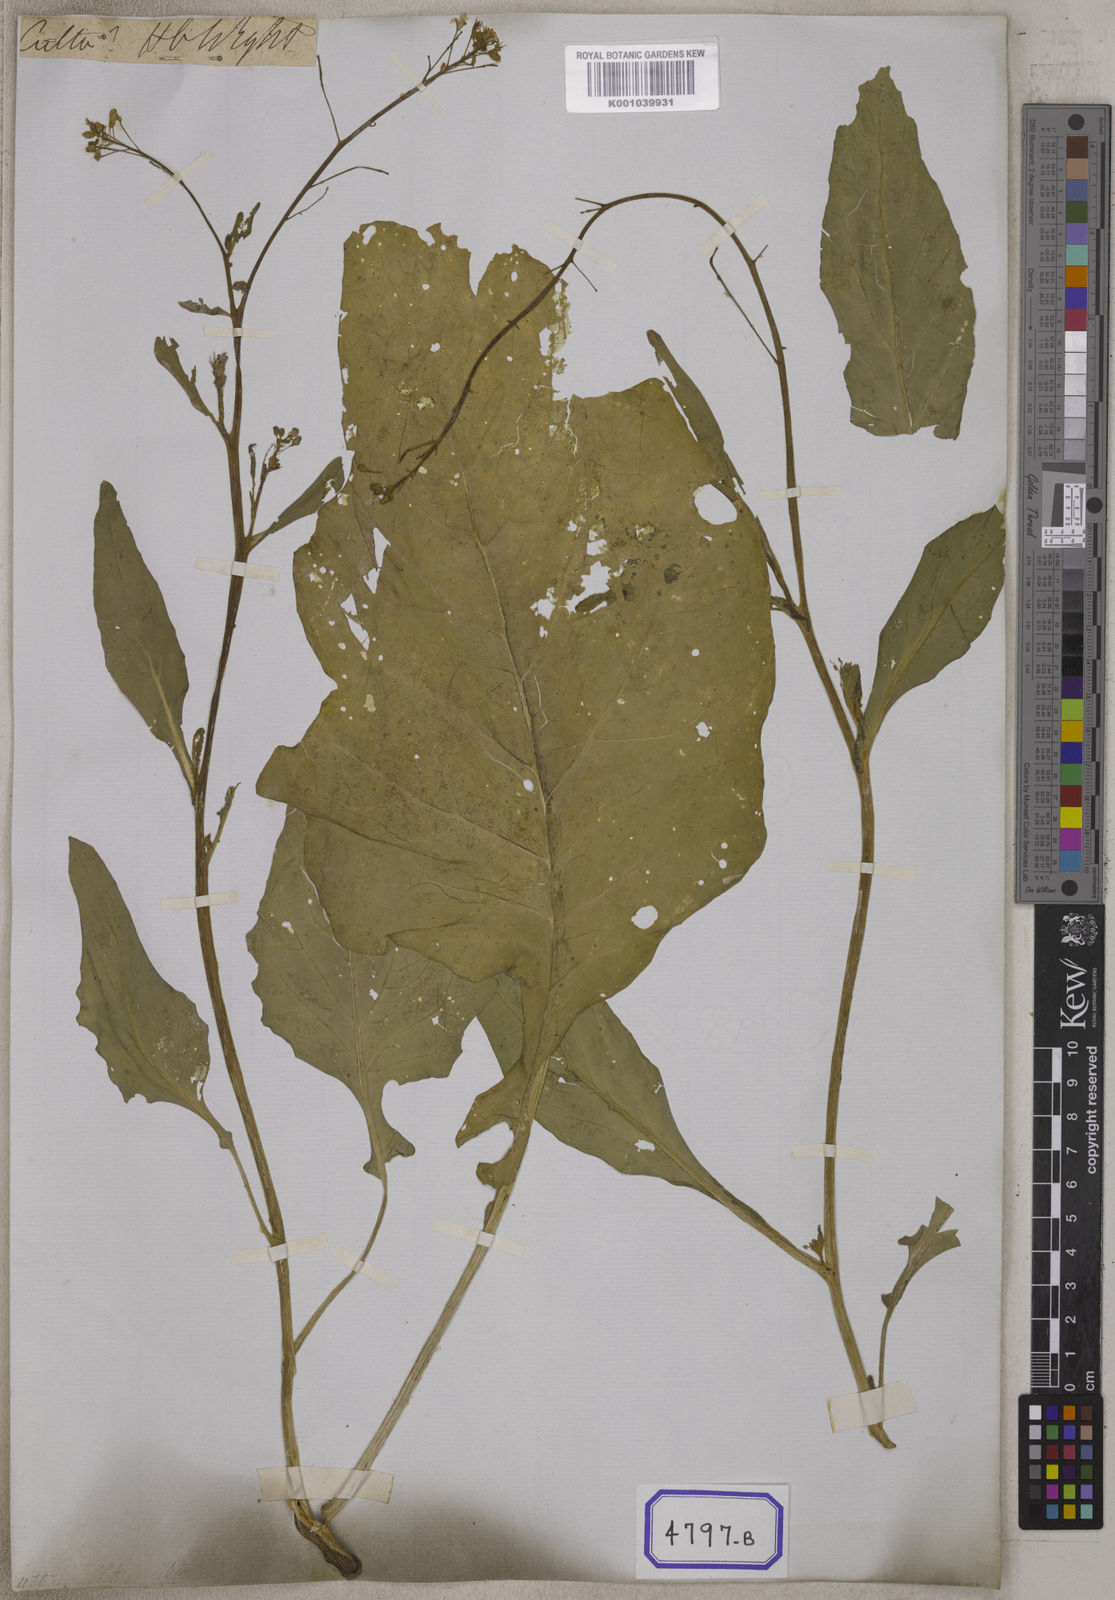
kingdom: Plantae
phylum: Tracheophyta
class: Magnoliopsida
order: Brassicales
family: Brassicaceae
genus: Brassica
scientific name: Brassica juncea
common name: Brown mustard
